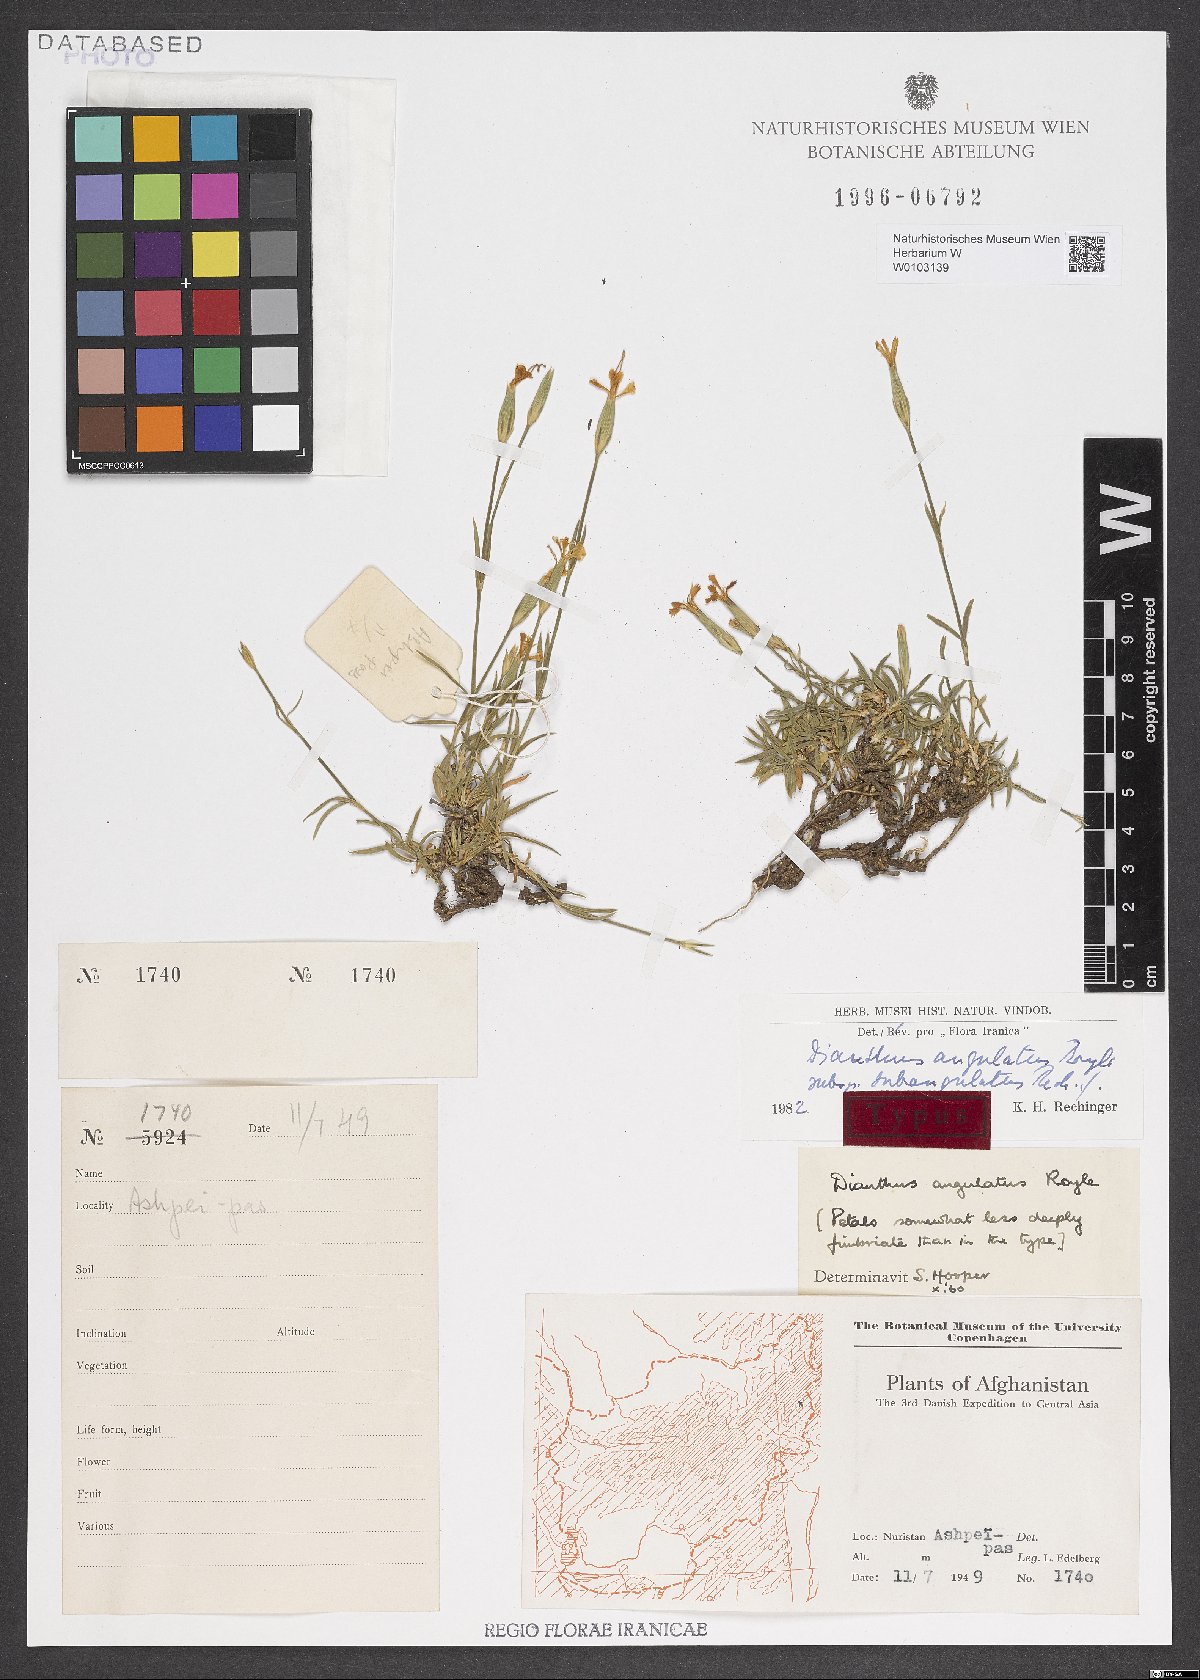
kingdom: Plantae
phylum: Tracheophyta
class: Magnoliopsida
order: Caryophyllales
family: Caryophyllaceae
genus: Dianthus
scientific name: Dianthus angulatus
